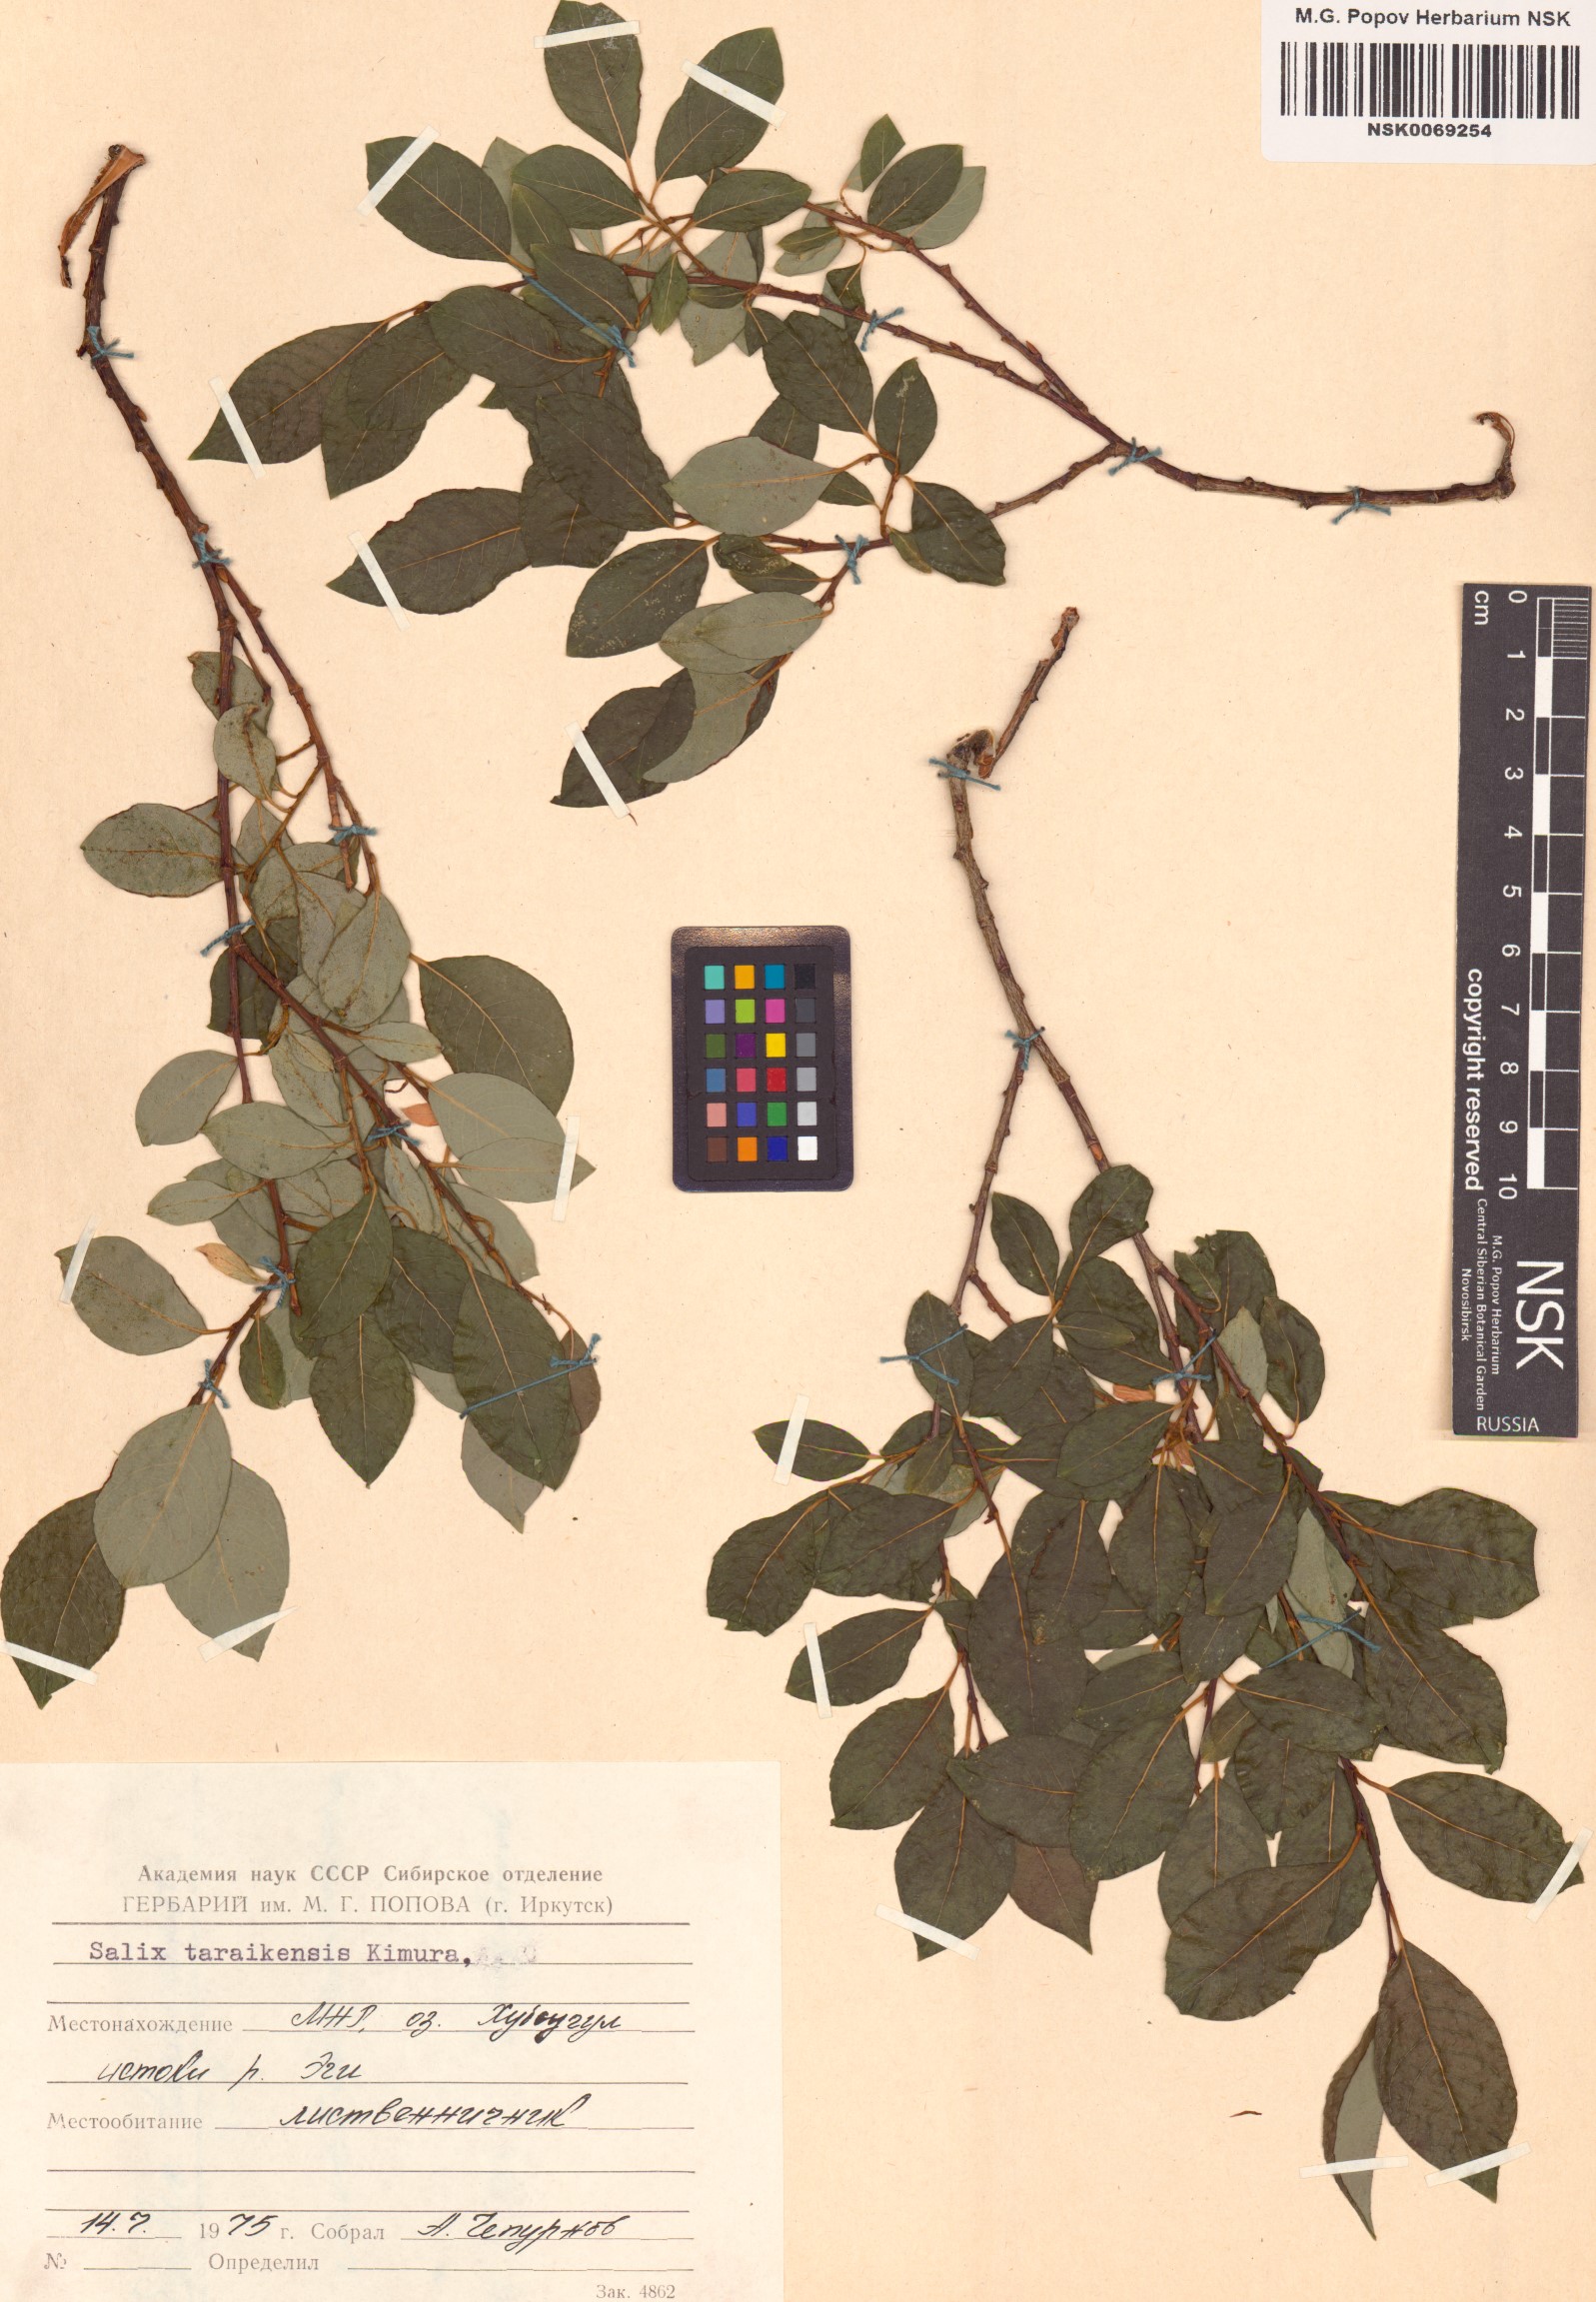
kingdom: Plantae
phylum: Tracheophyta
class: Magnoliopsida
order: Malpighiales
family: Salicaceae
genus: Salix
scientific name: Salix taraikensis
